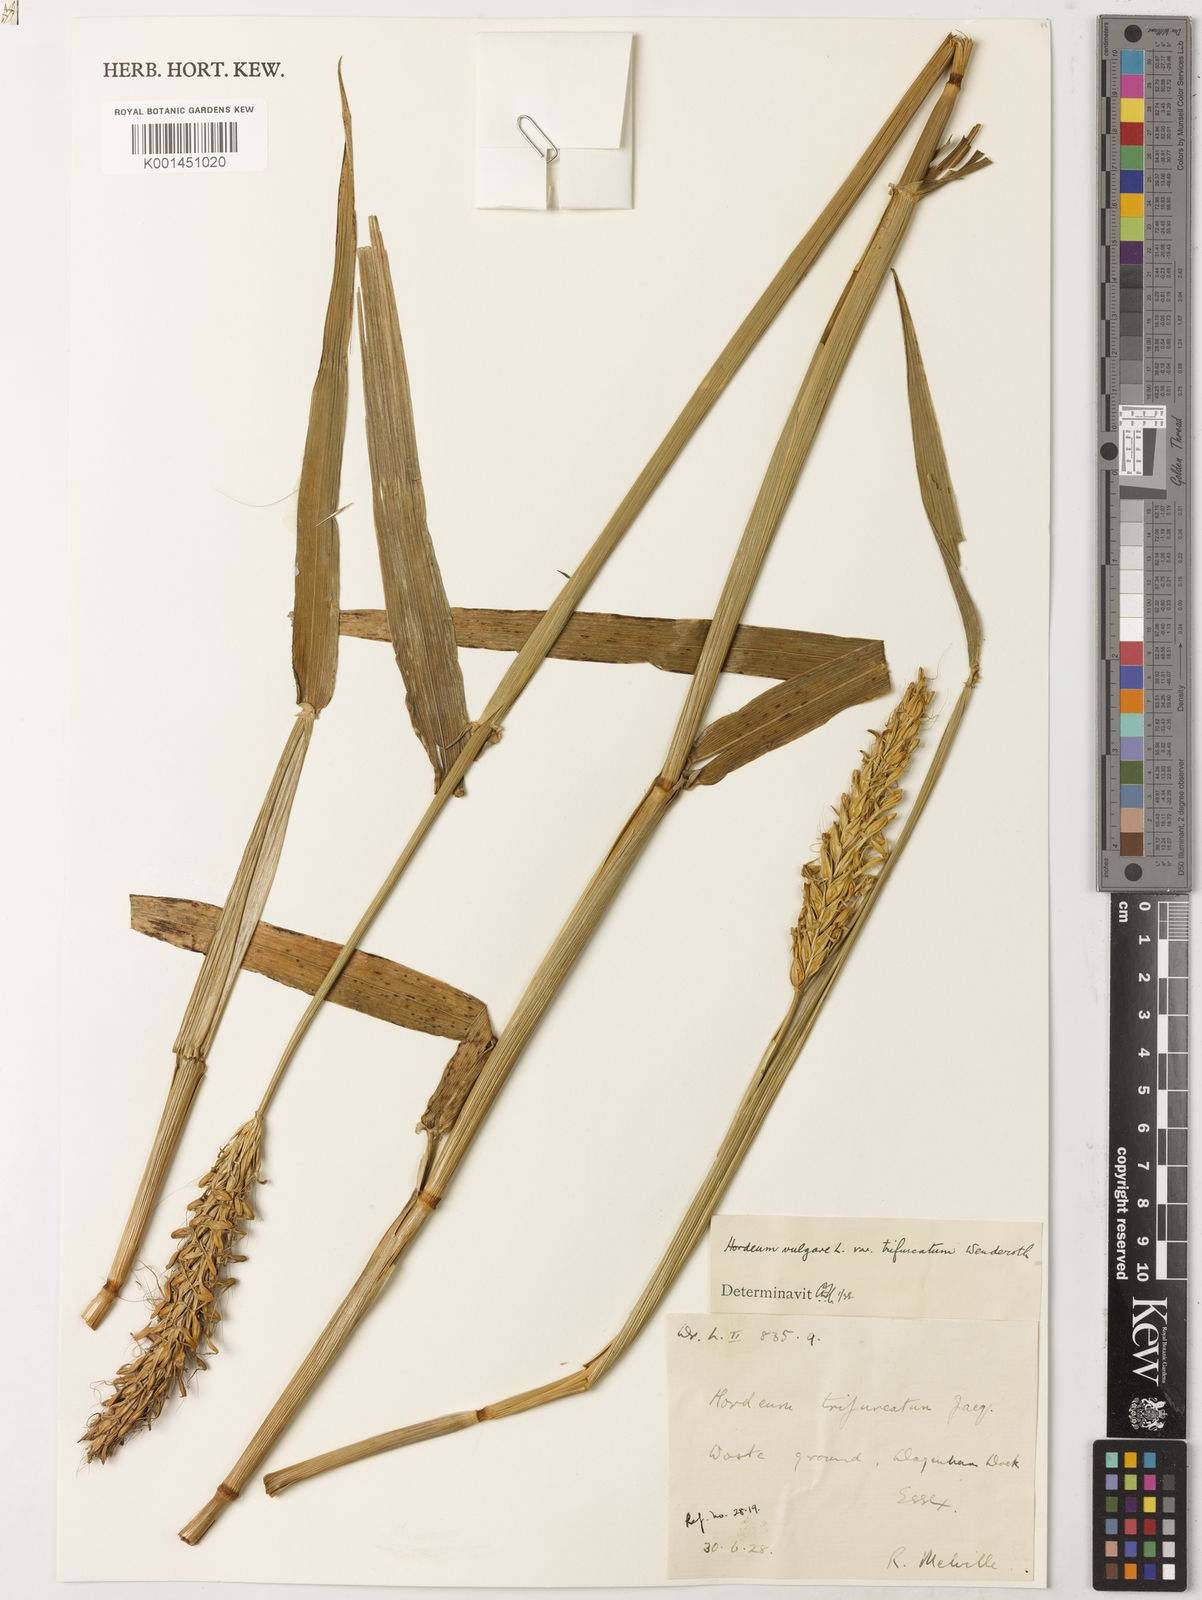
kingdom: Plantae
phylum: Tracheophyta
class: Liliopsida
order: Poales
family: Poaceae
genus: Hordeum
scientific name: Hordeum vulgare
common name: Common barley
